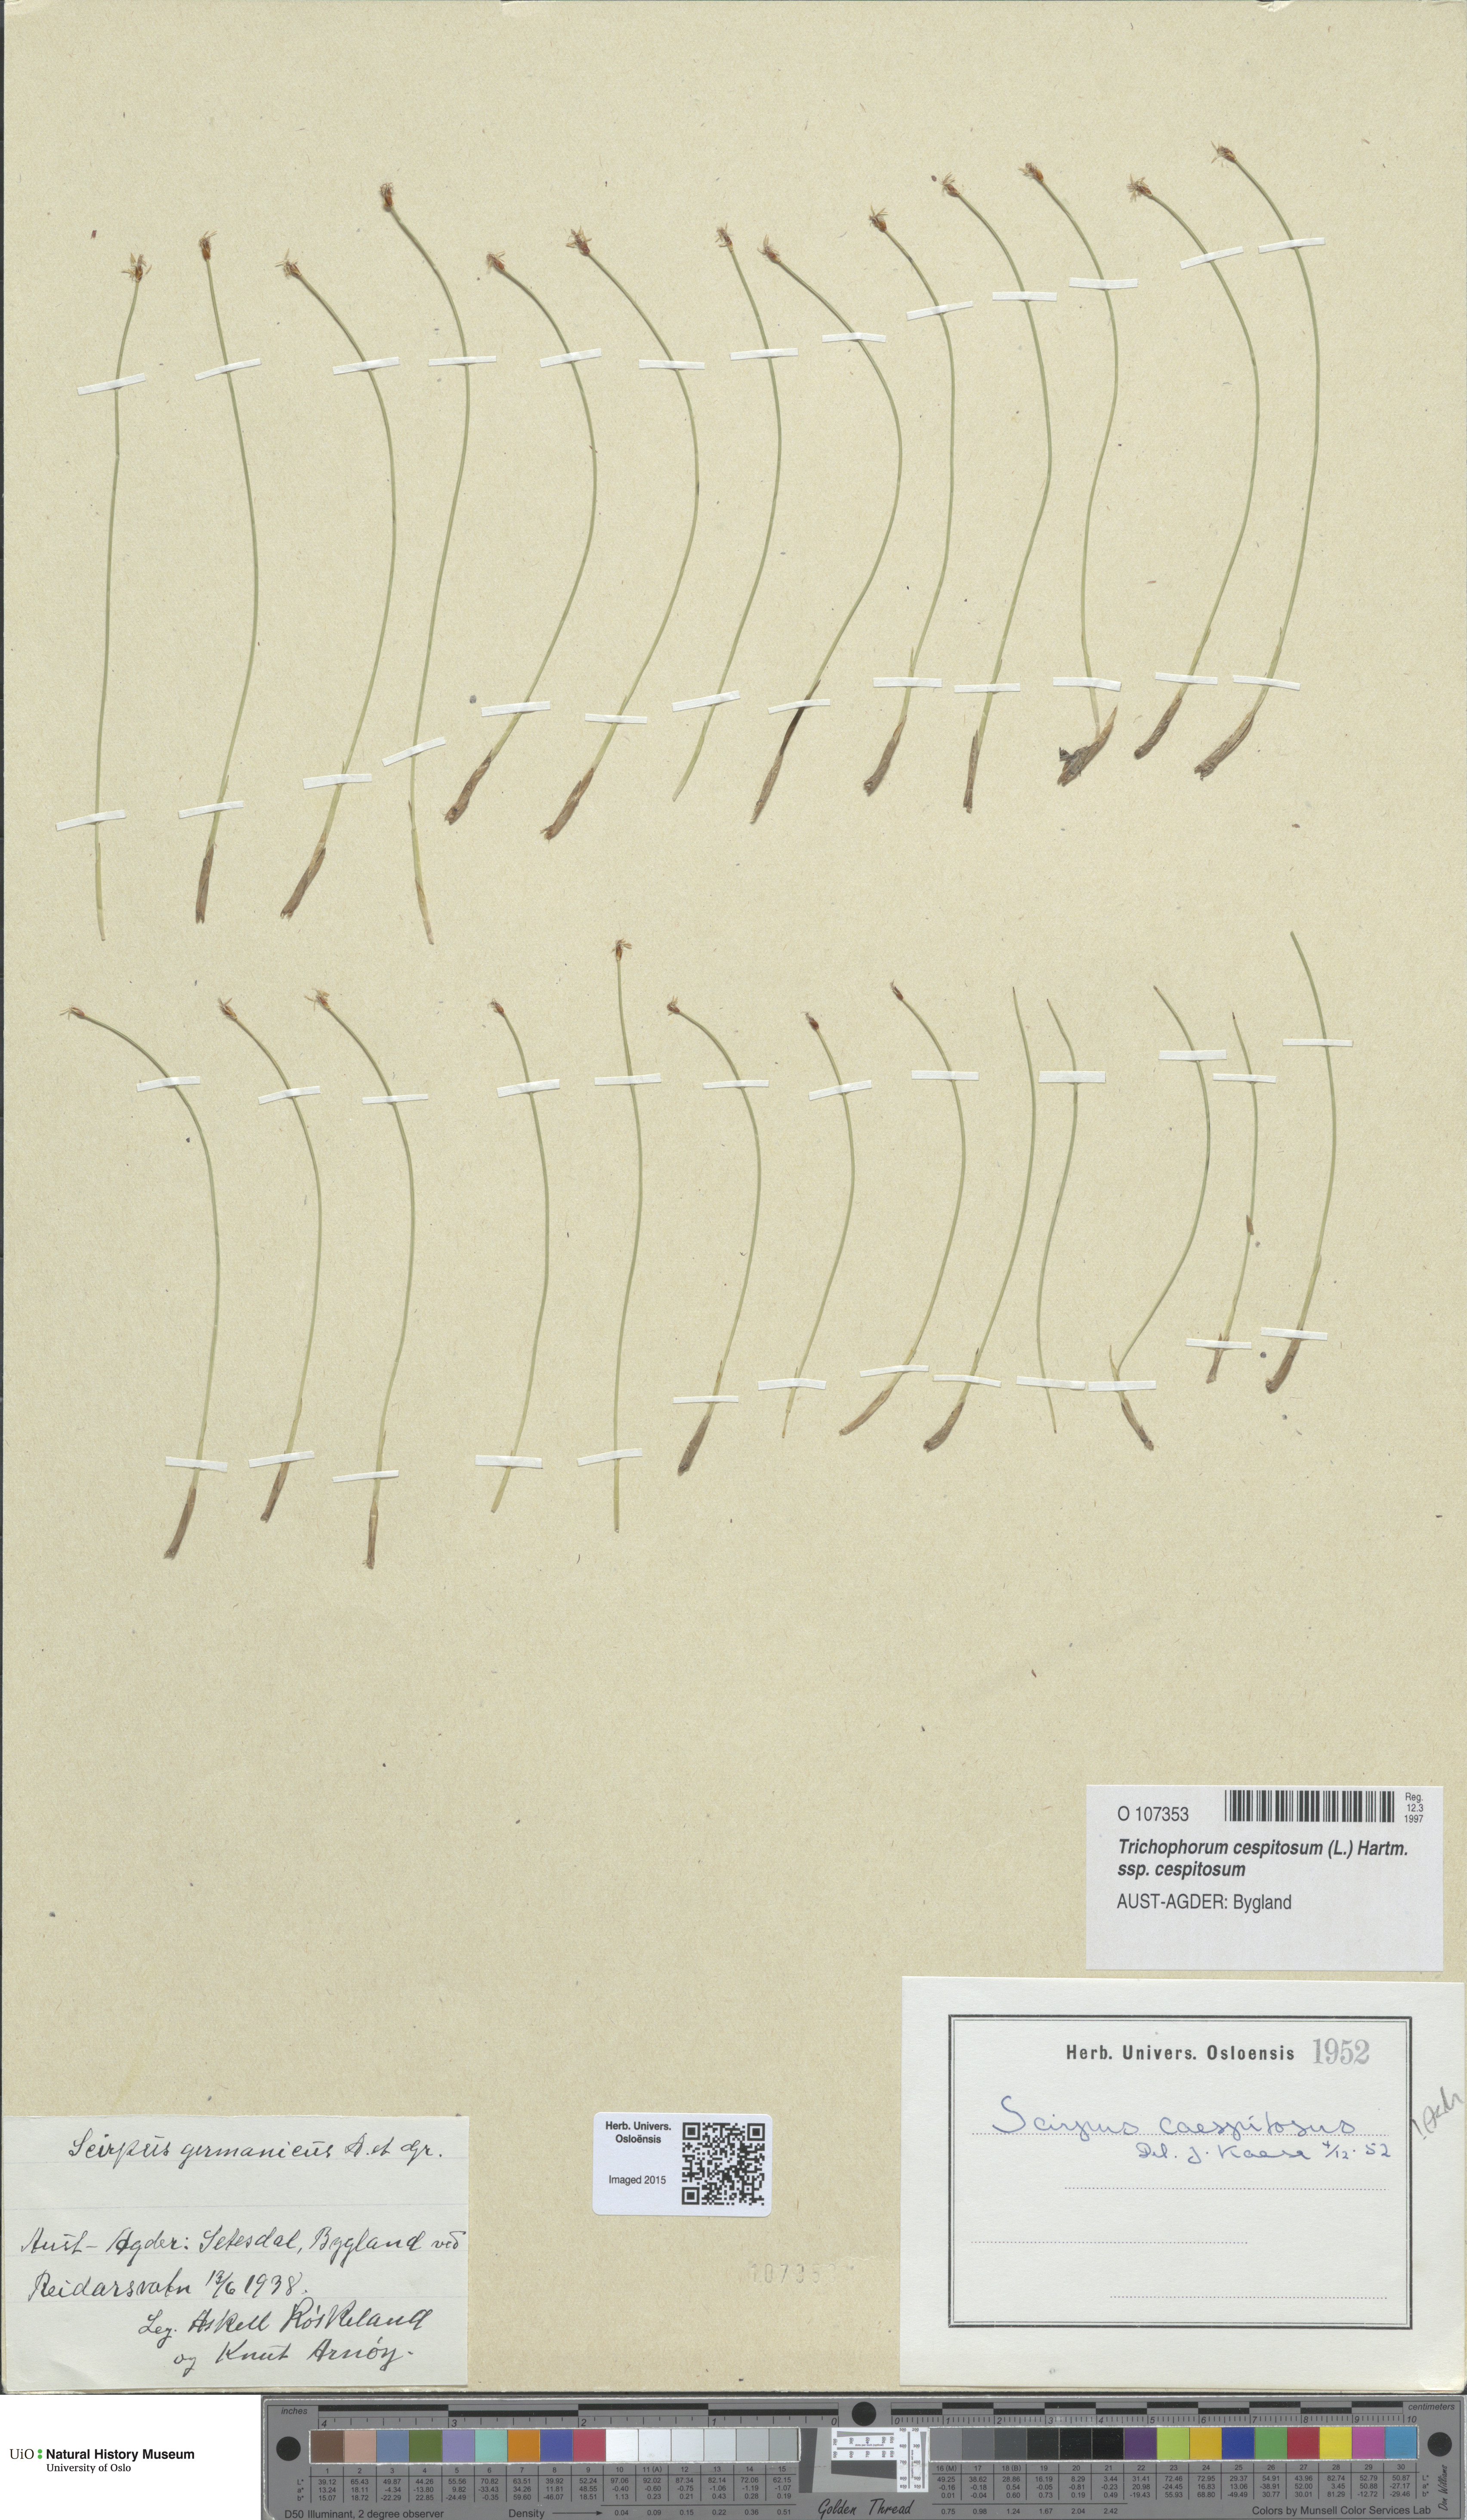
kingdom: Plantae
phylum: Tracheophyta
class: Liliopsida
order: Poales
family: Cyperaceae
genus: Trichophorum
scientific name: Trichophorum cespitosum
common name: Cespitose bulrush
